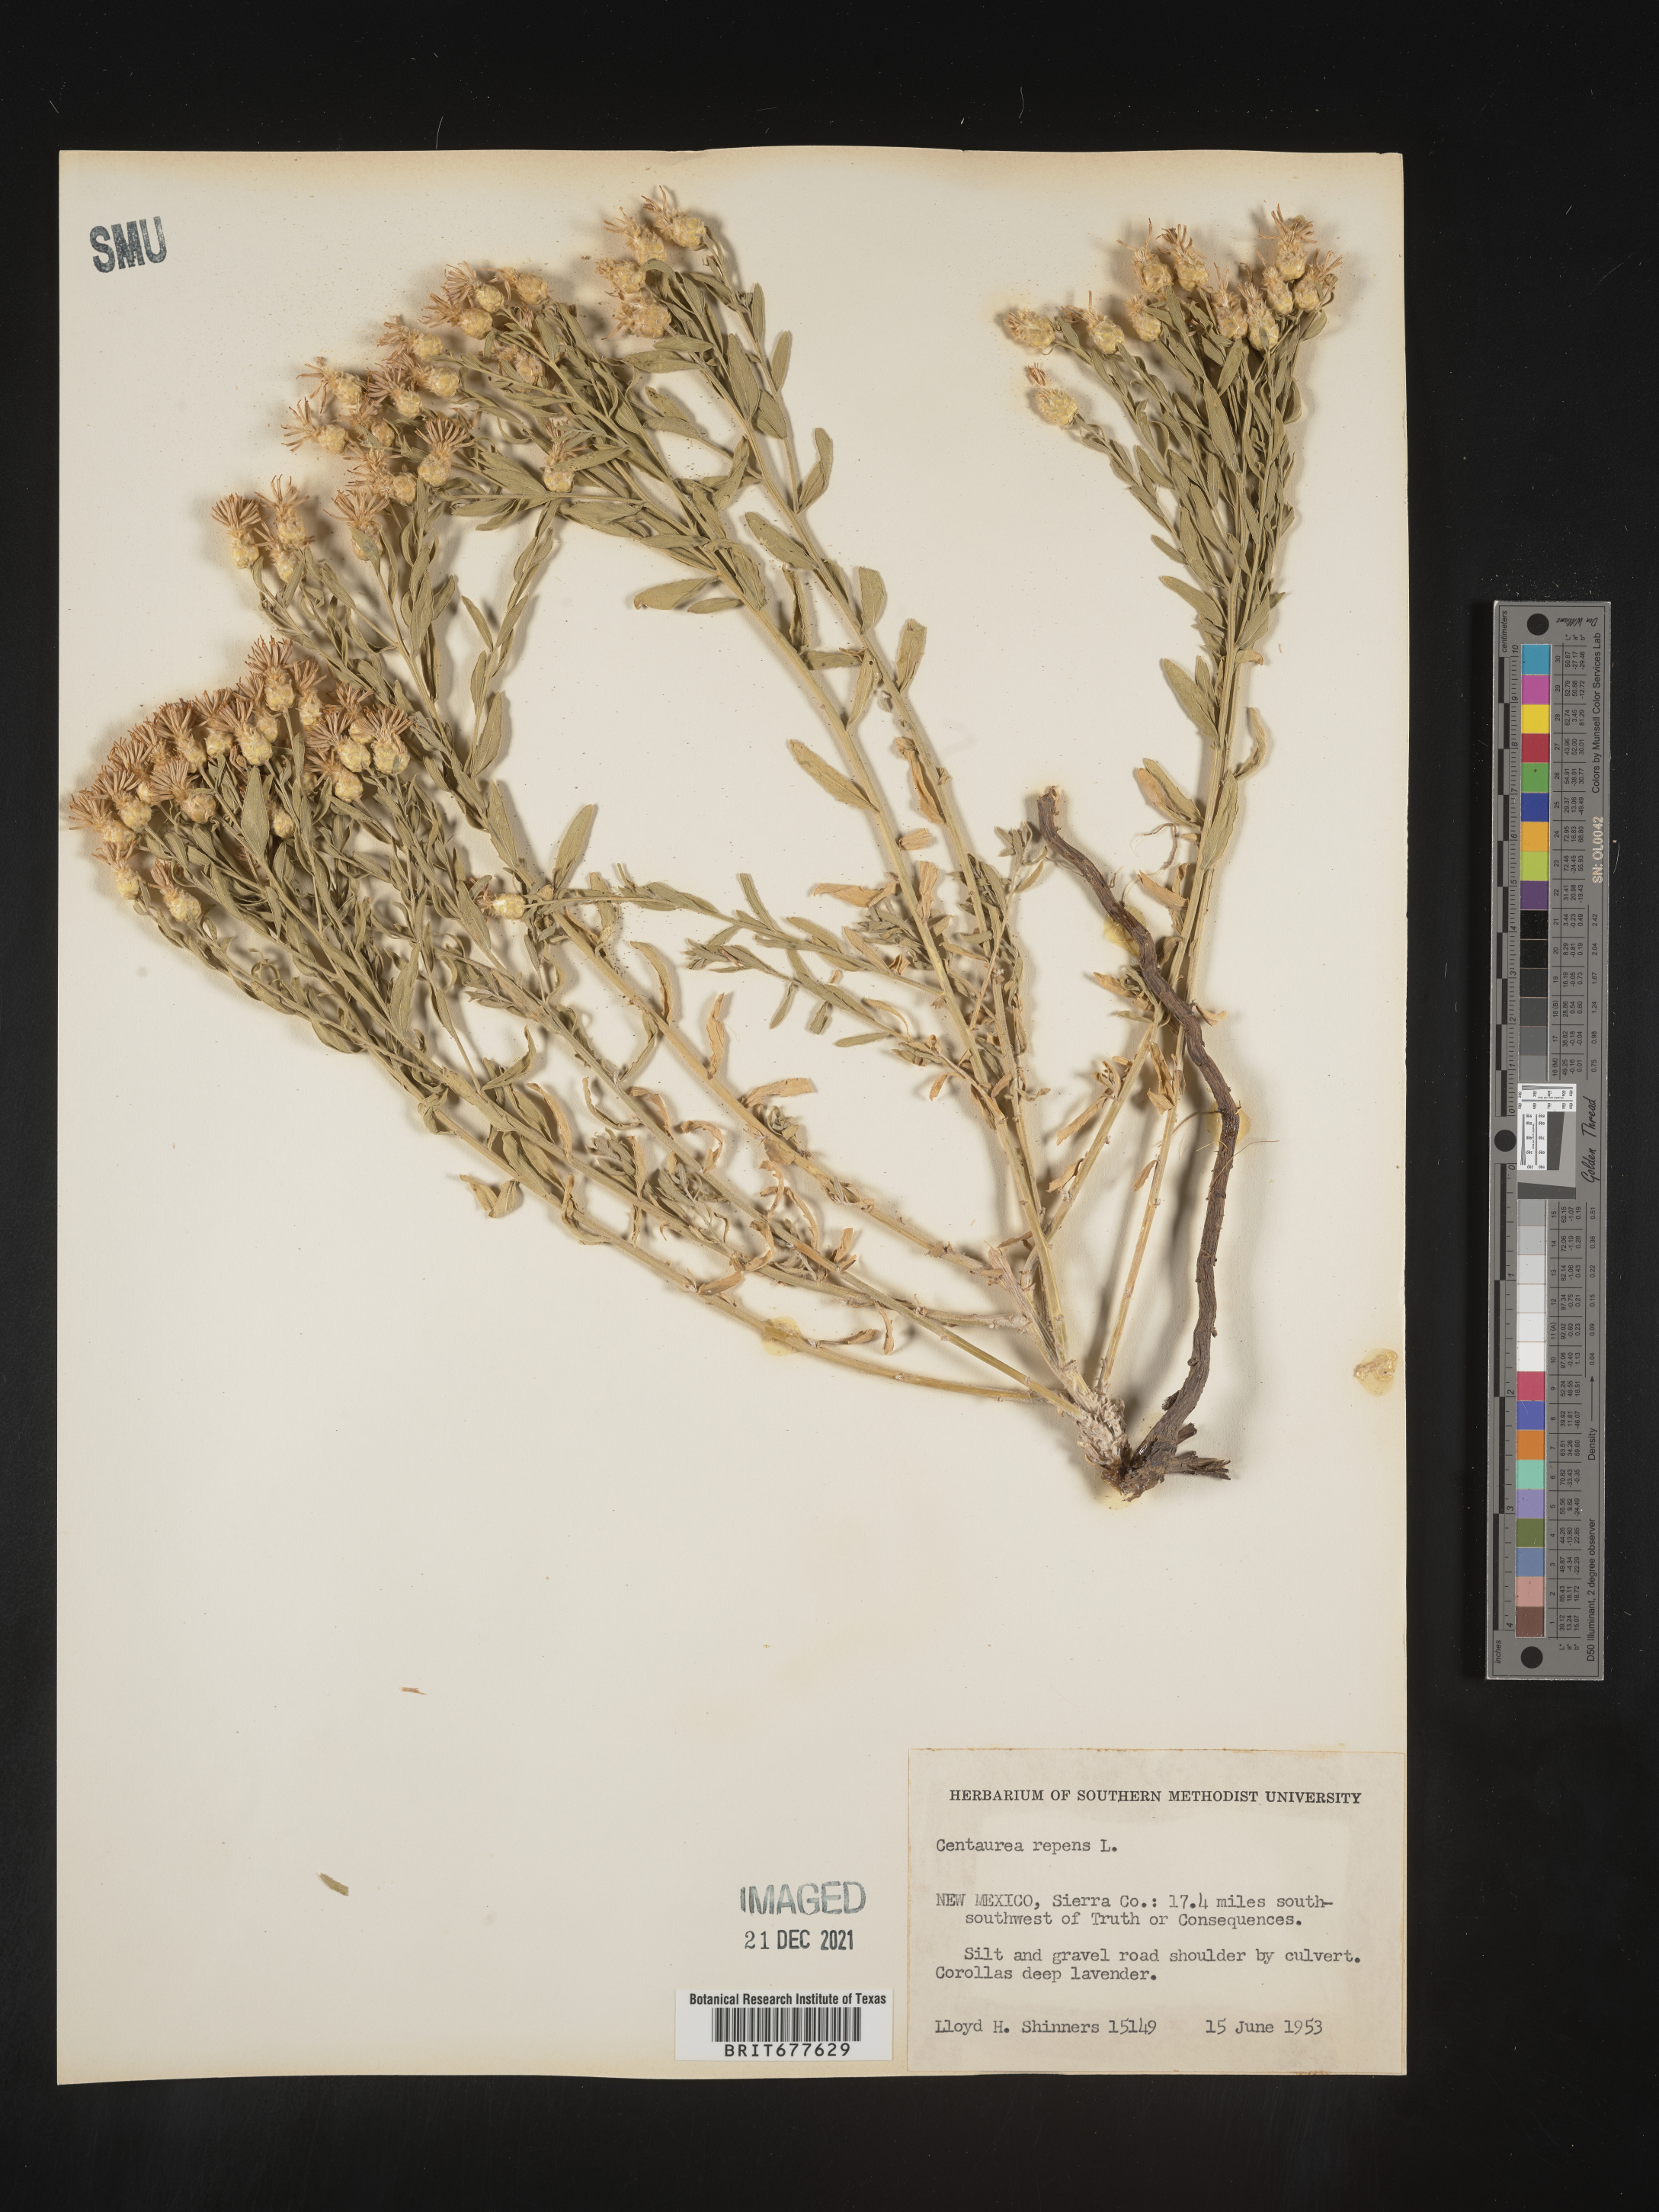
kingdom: Plantae
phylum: Tracheophyta
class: Magnoliopsida
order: Asterales
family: Asteraceae
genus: Leuzea
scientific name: Leuzea repens
